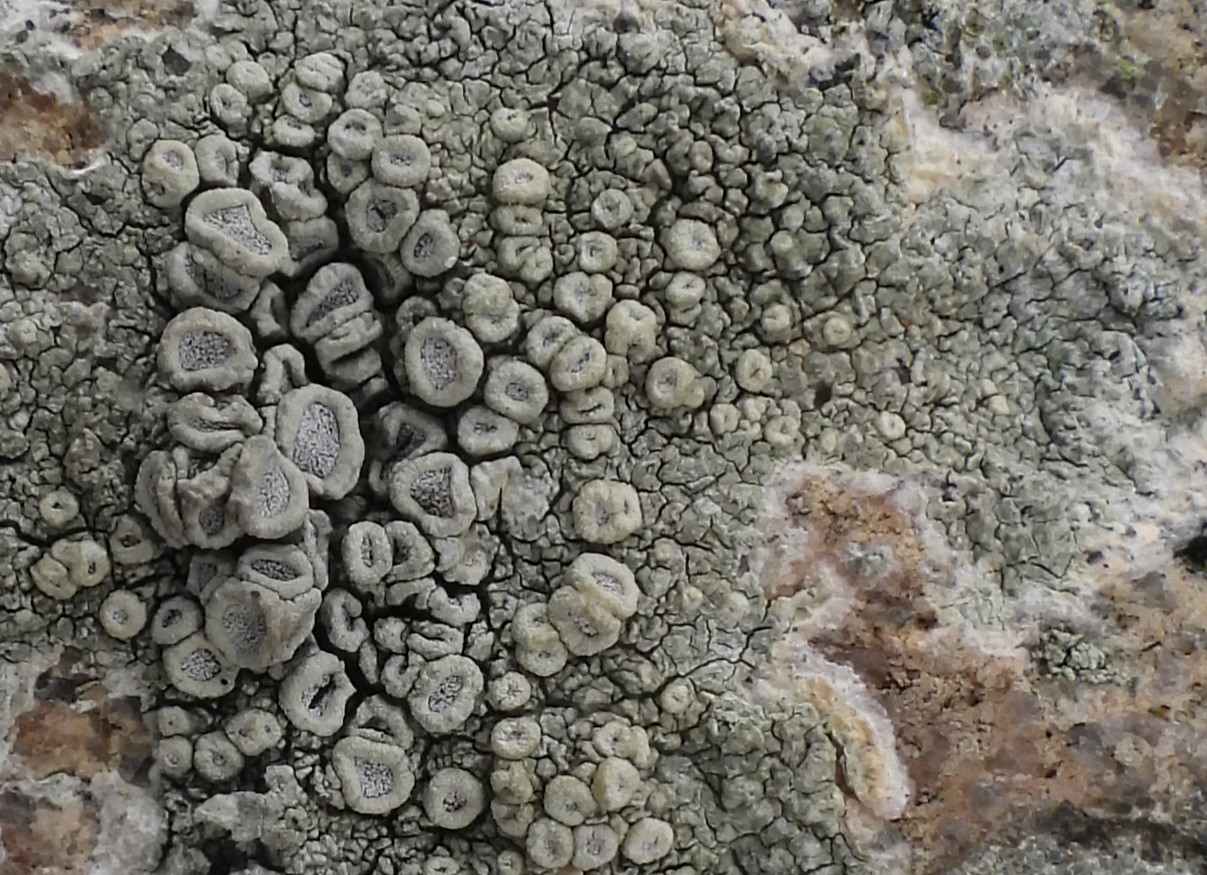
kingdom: Fungi
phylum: Ascomycota
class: Lecanoromycetes
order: Pertusariales
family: Ochrolechiaceae
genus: Ochrolechia
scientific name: Ochrolechia parella
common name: almindelig blegskivelav
